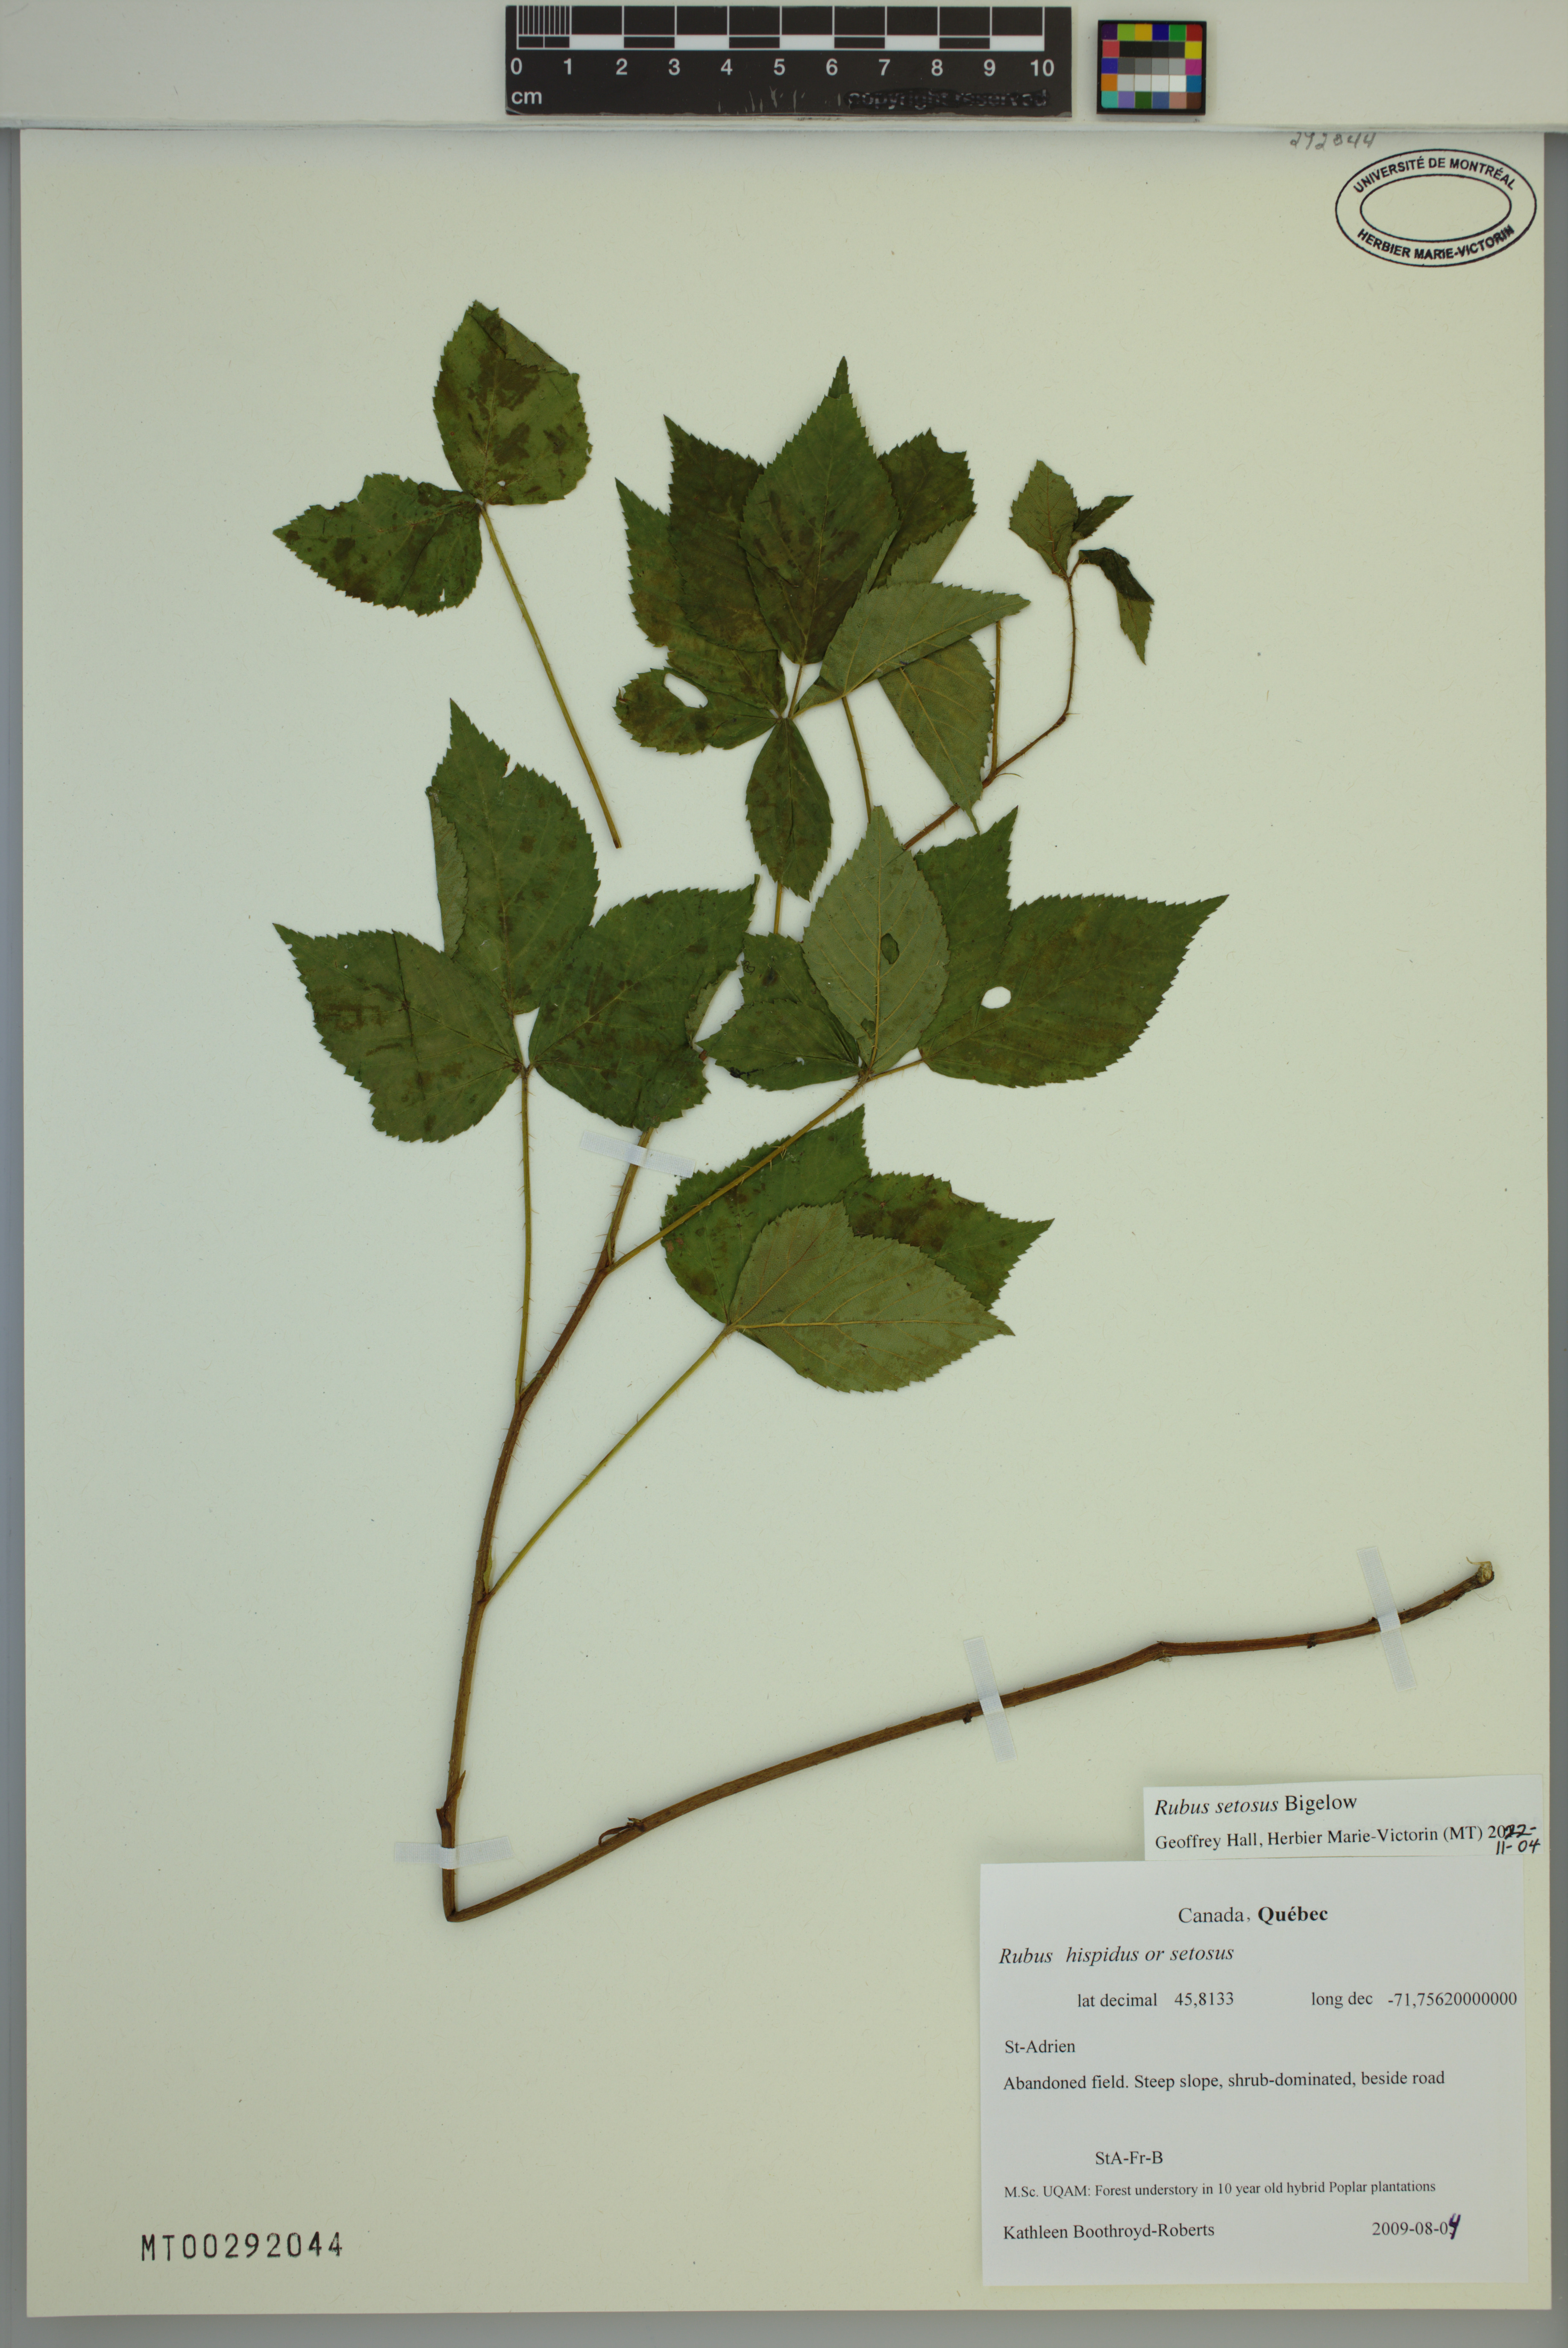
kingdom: Plantae
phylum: Tracheophyta
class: Magnoliopsida
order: Rosales
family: Rosaceae
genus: Rubus
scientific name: Rubus setosus
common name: Bristly blackberry
